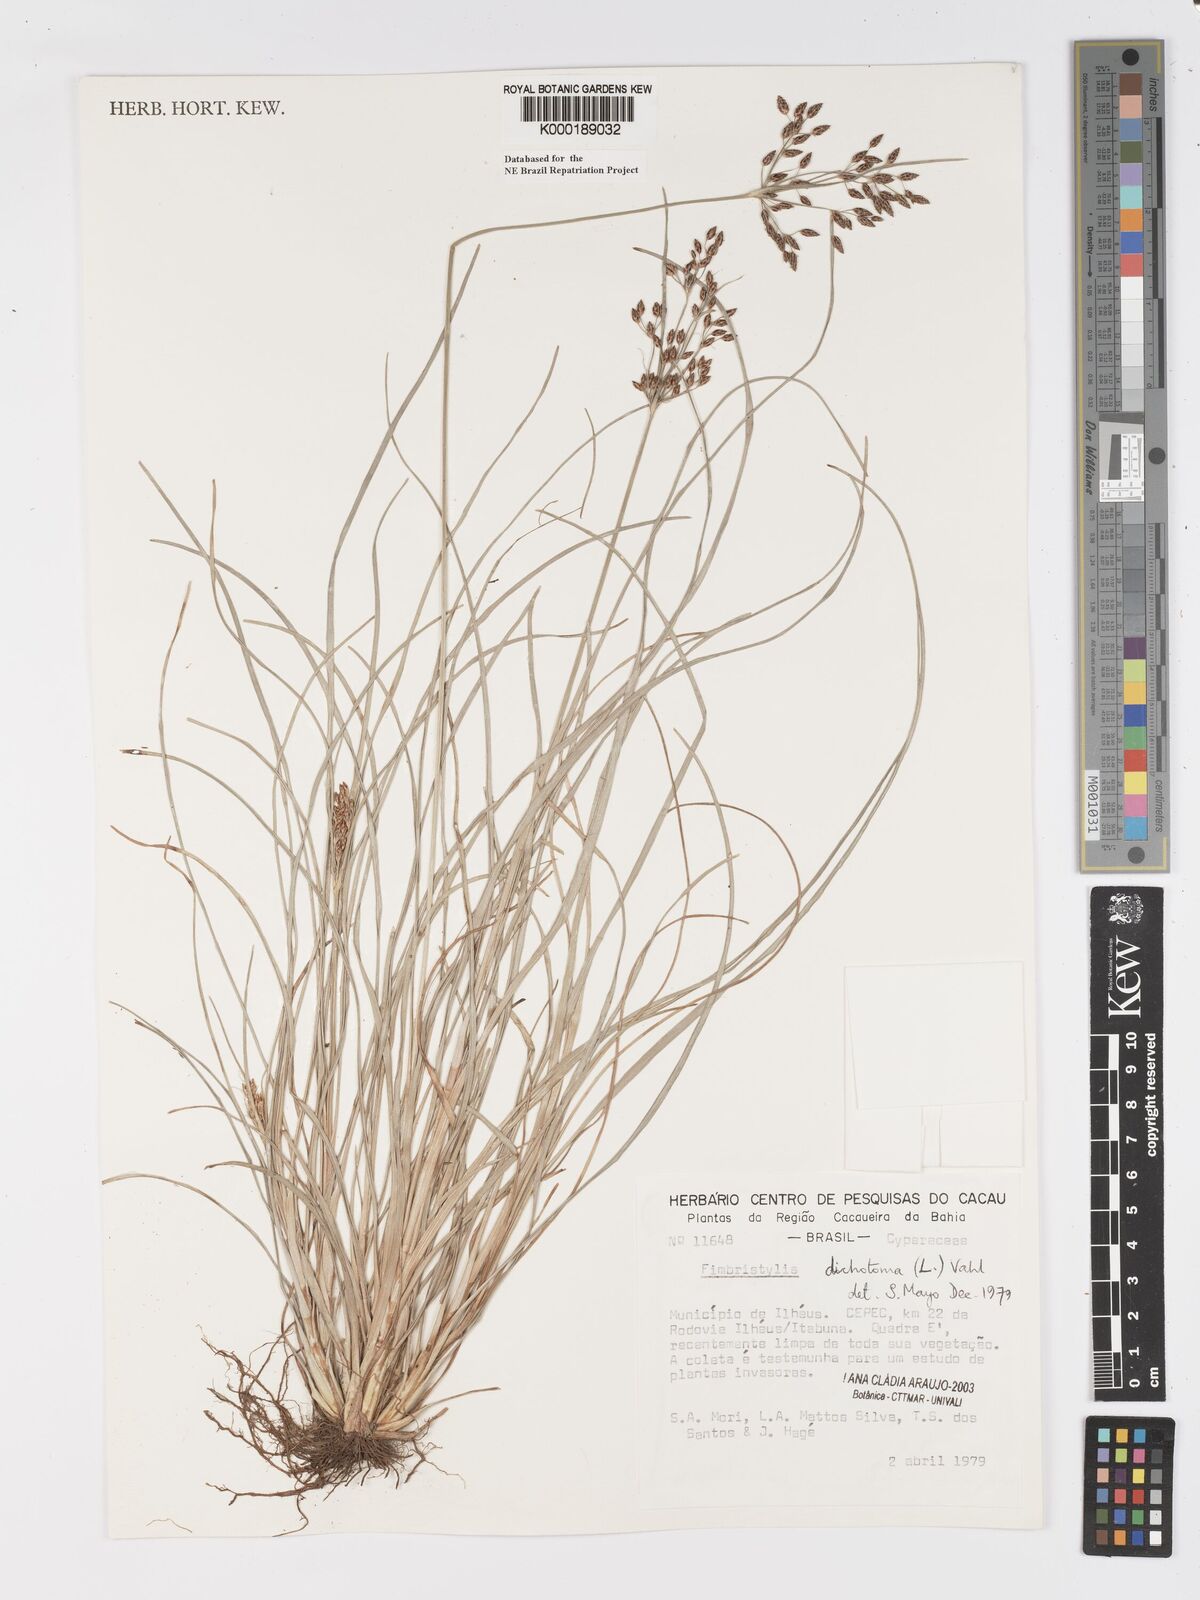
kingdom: Plantae
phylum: Tracheophyta
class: Liliopsida
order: Poales
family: Cyperaceae
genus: Fimbristylis
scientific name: Fimbristylis dichotoma
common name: Forked fimbry
